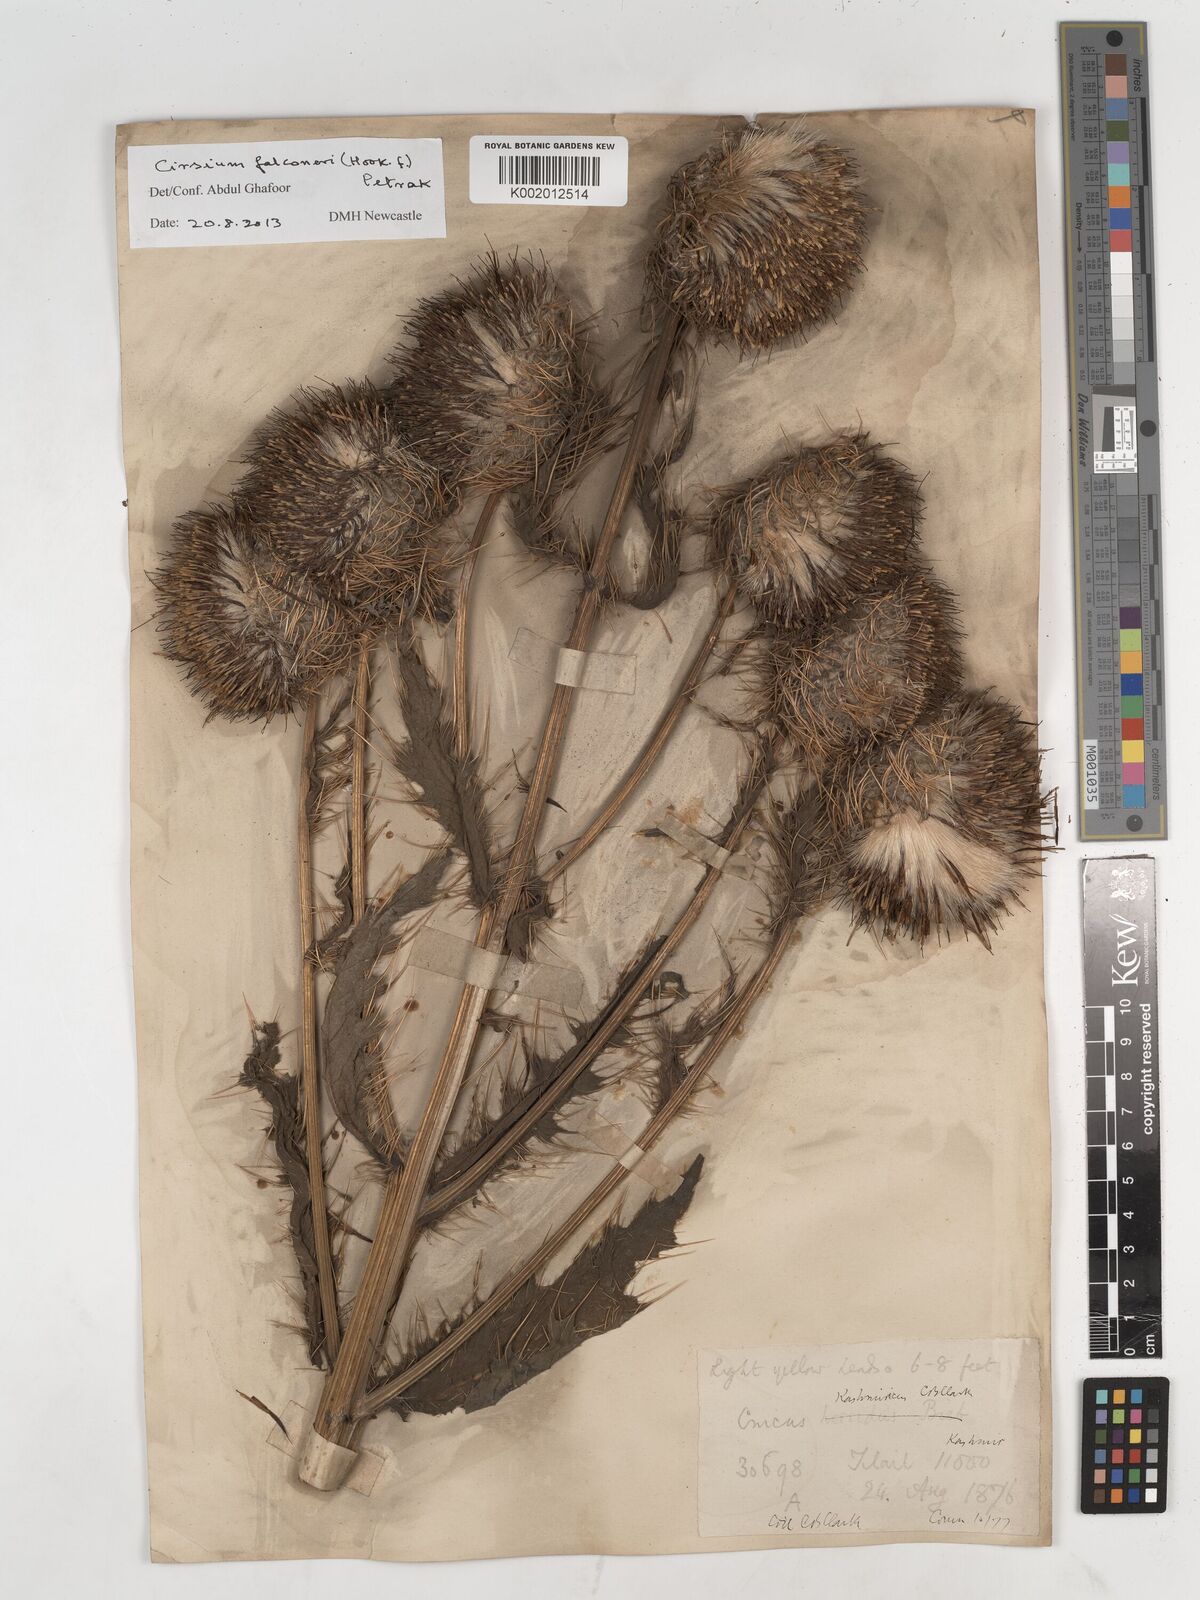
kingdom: Plantae
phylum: Tracheophyta
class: Magnoliopsida
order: Asterales
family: Asteraceae
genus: Cirsium
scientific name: Cirsium falconeri
